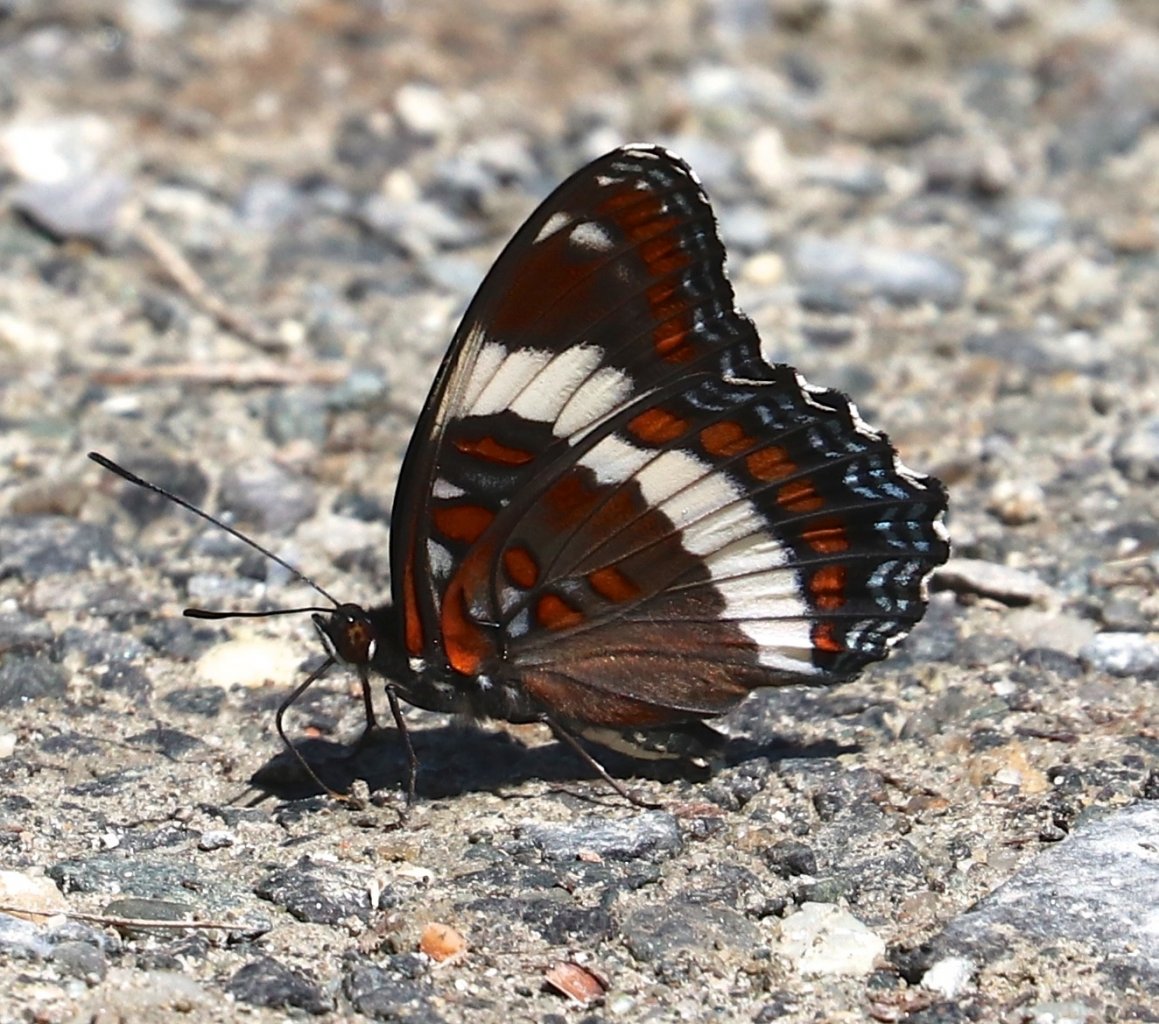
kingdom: Animalia
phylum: Arthropoda
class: Insecta
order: Lepidoptera
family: Nymphalidae
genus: Limenitis
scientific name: Limenitis arthemis
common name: Red-spotted Admiral
